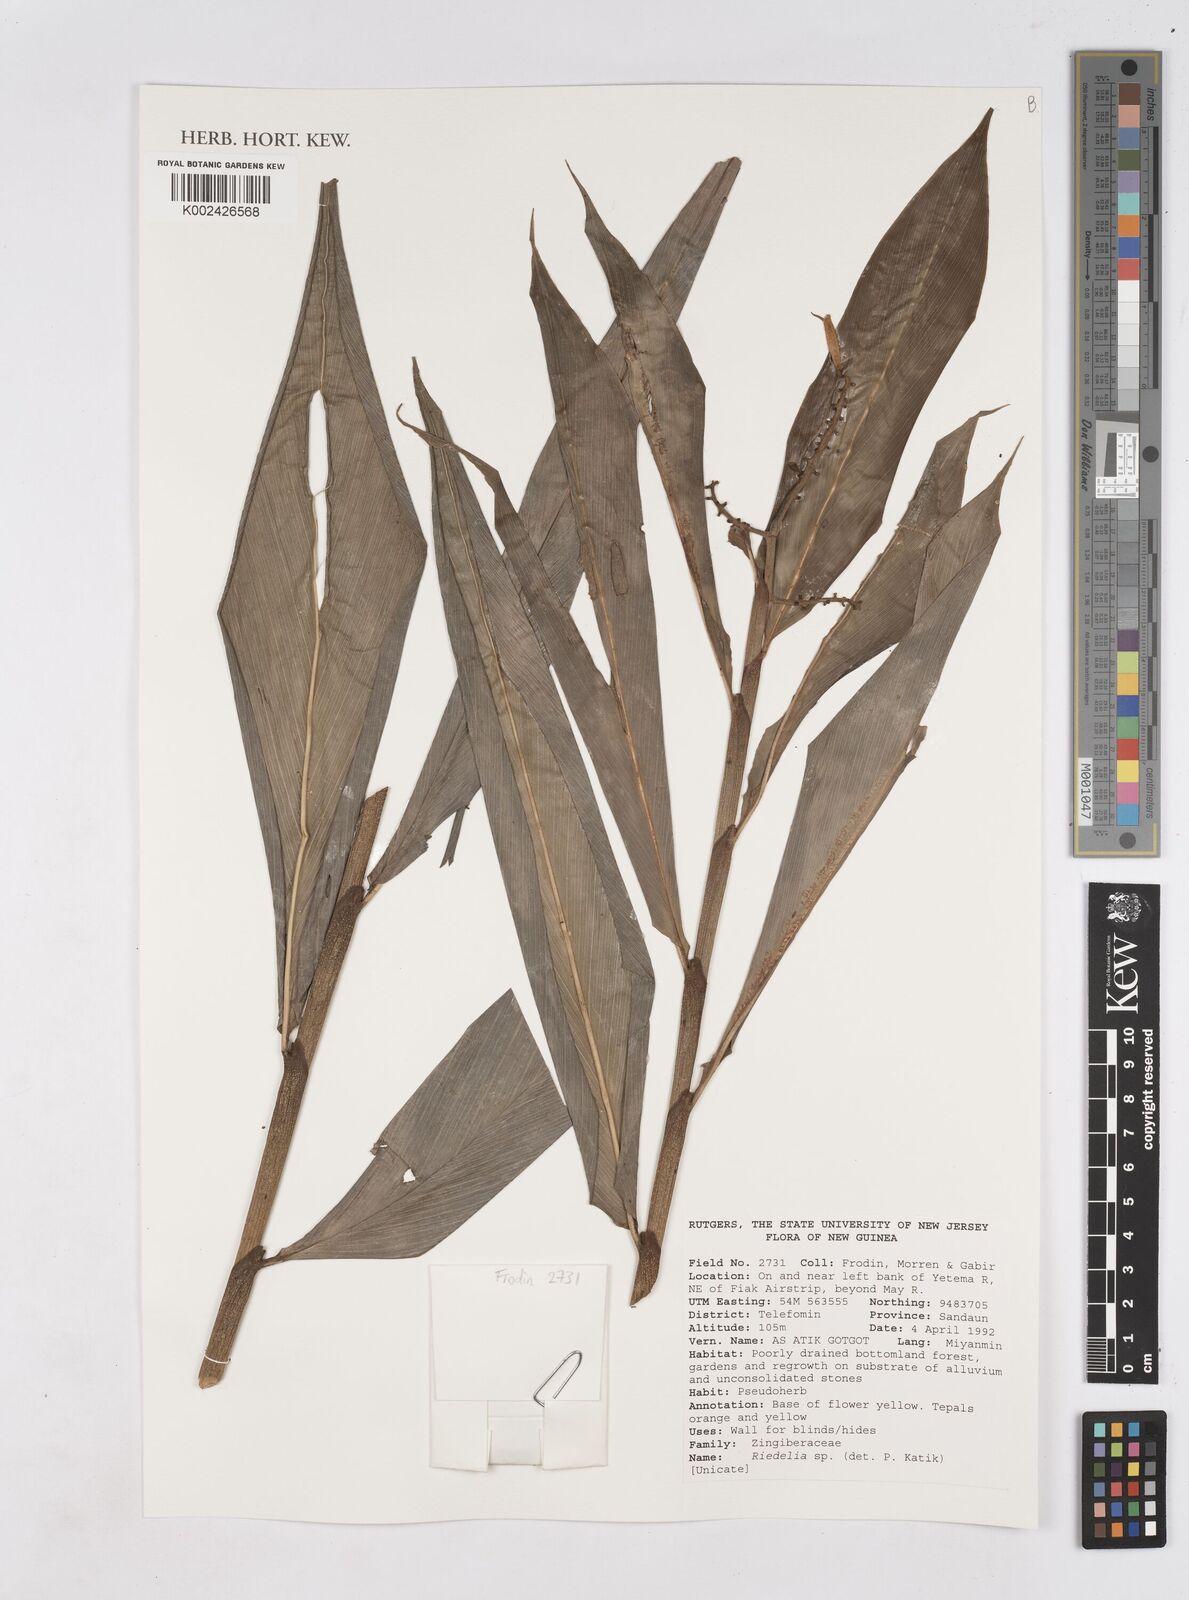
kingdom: Plantae
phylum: Tracheophyta
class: Liliopsida
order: Zingiberales
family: Zingiberaceae
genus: Riedelia
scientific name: Riedelia
